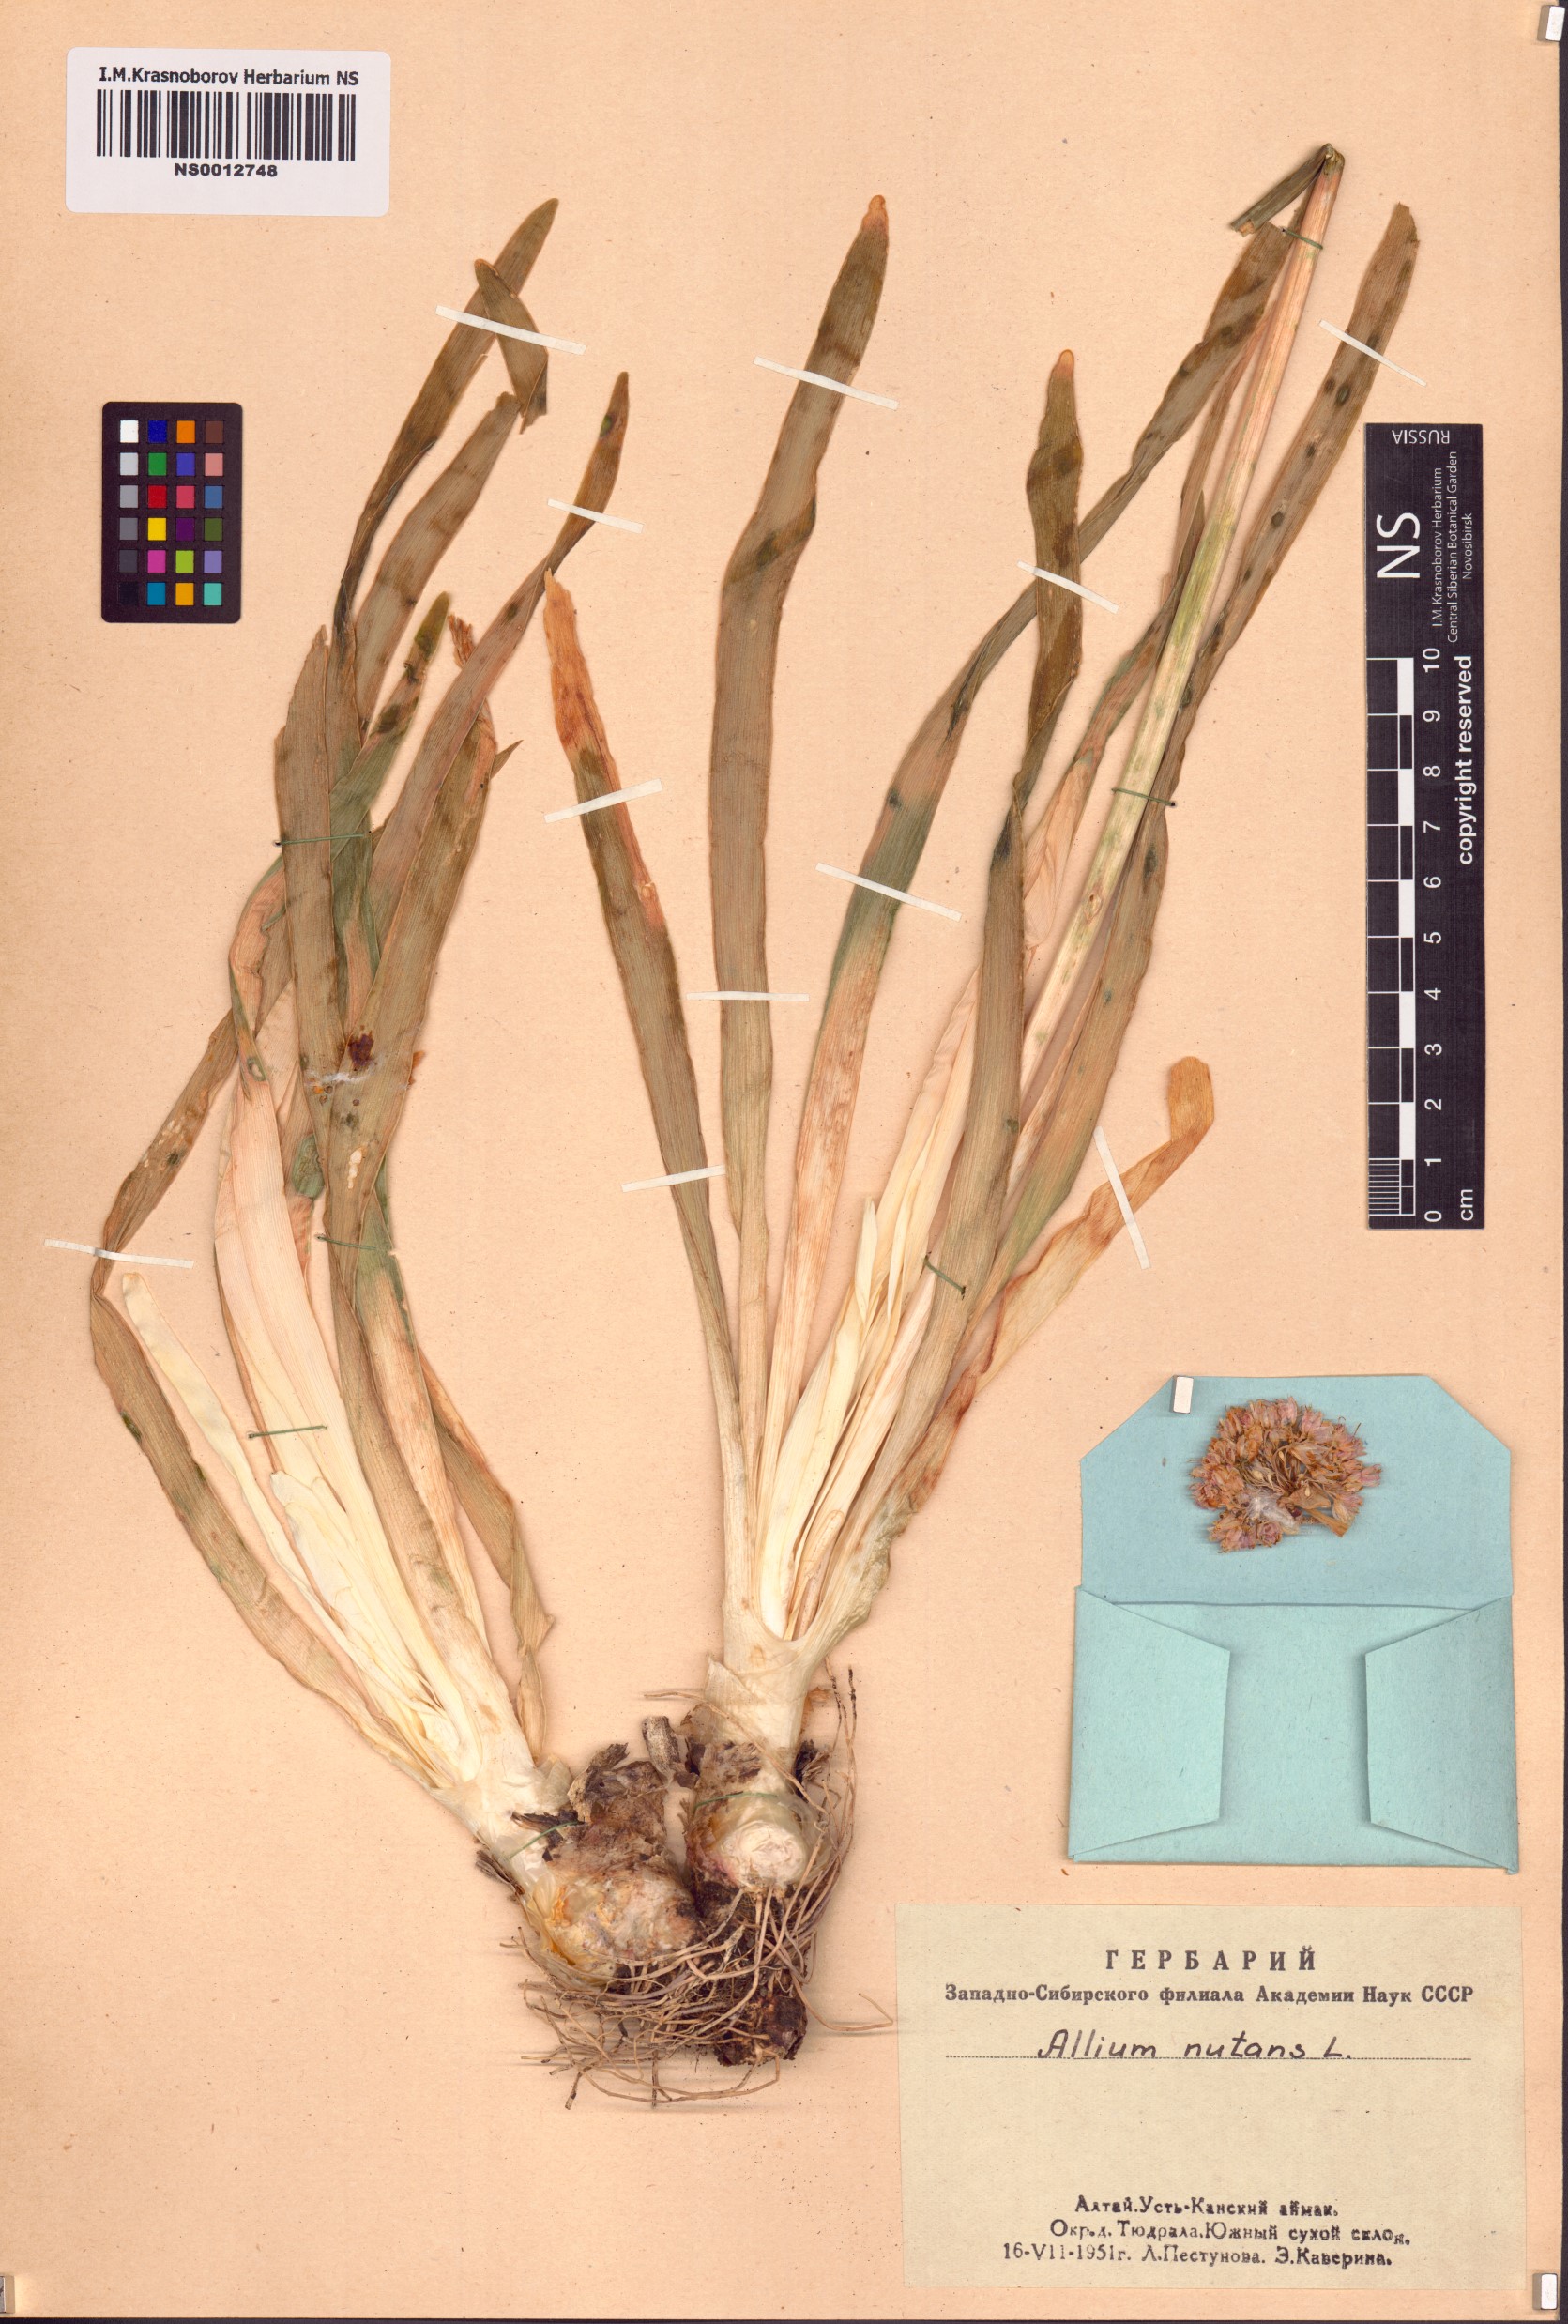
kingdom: Plantae
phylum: Tracheophyta
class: Liliopsida
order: Asparagales
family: Amaryllidaceae
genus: Allium
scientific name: Allium nutans
